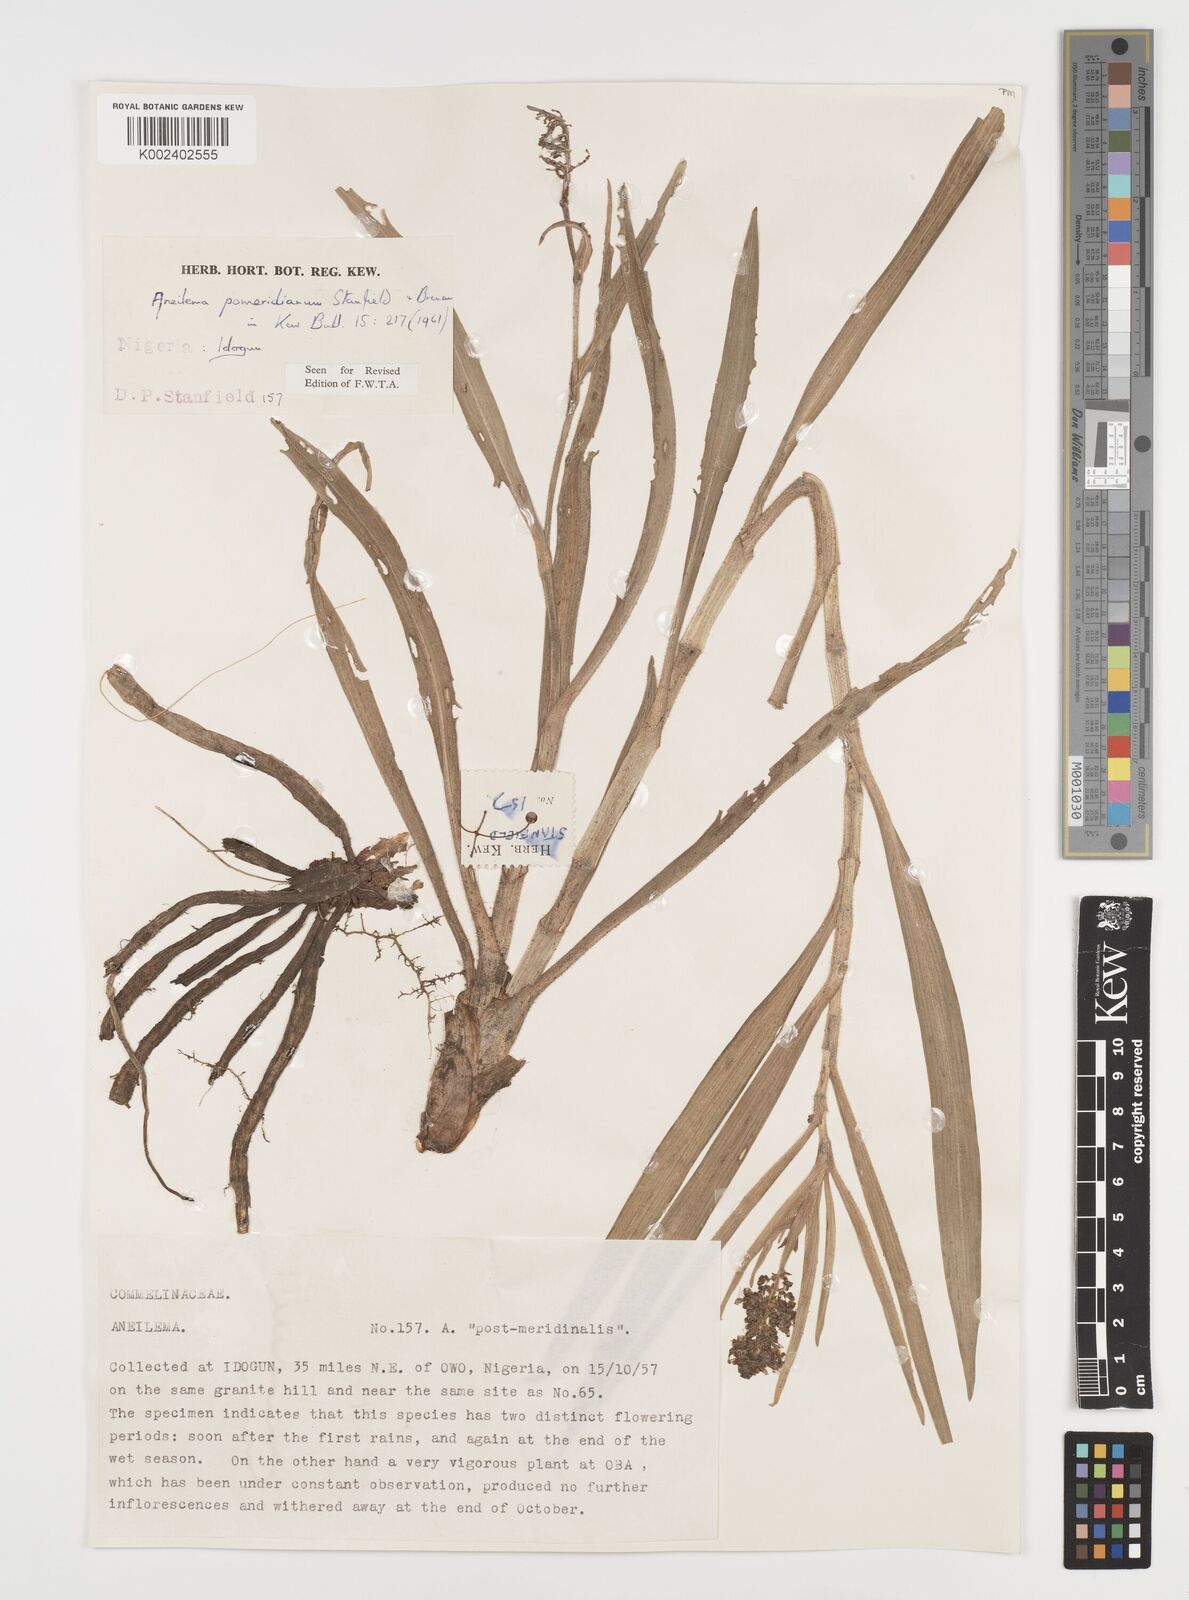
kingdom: Plantae
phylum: Tracheophyta
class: Liliopsida
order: Commelinales
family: Commelinaceae
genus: Aneilema
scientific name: Aneilema pomeridianum
